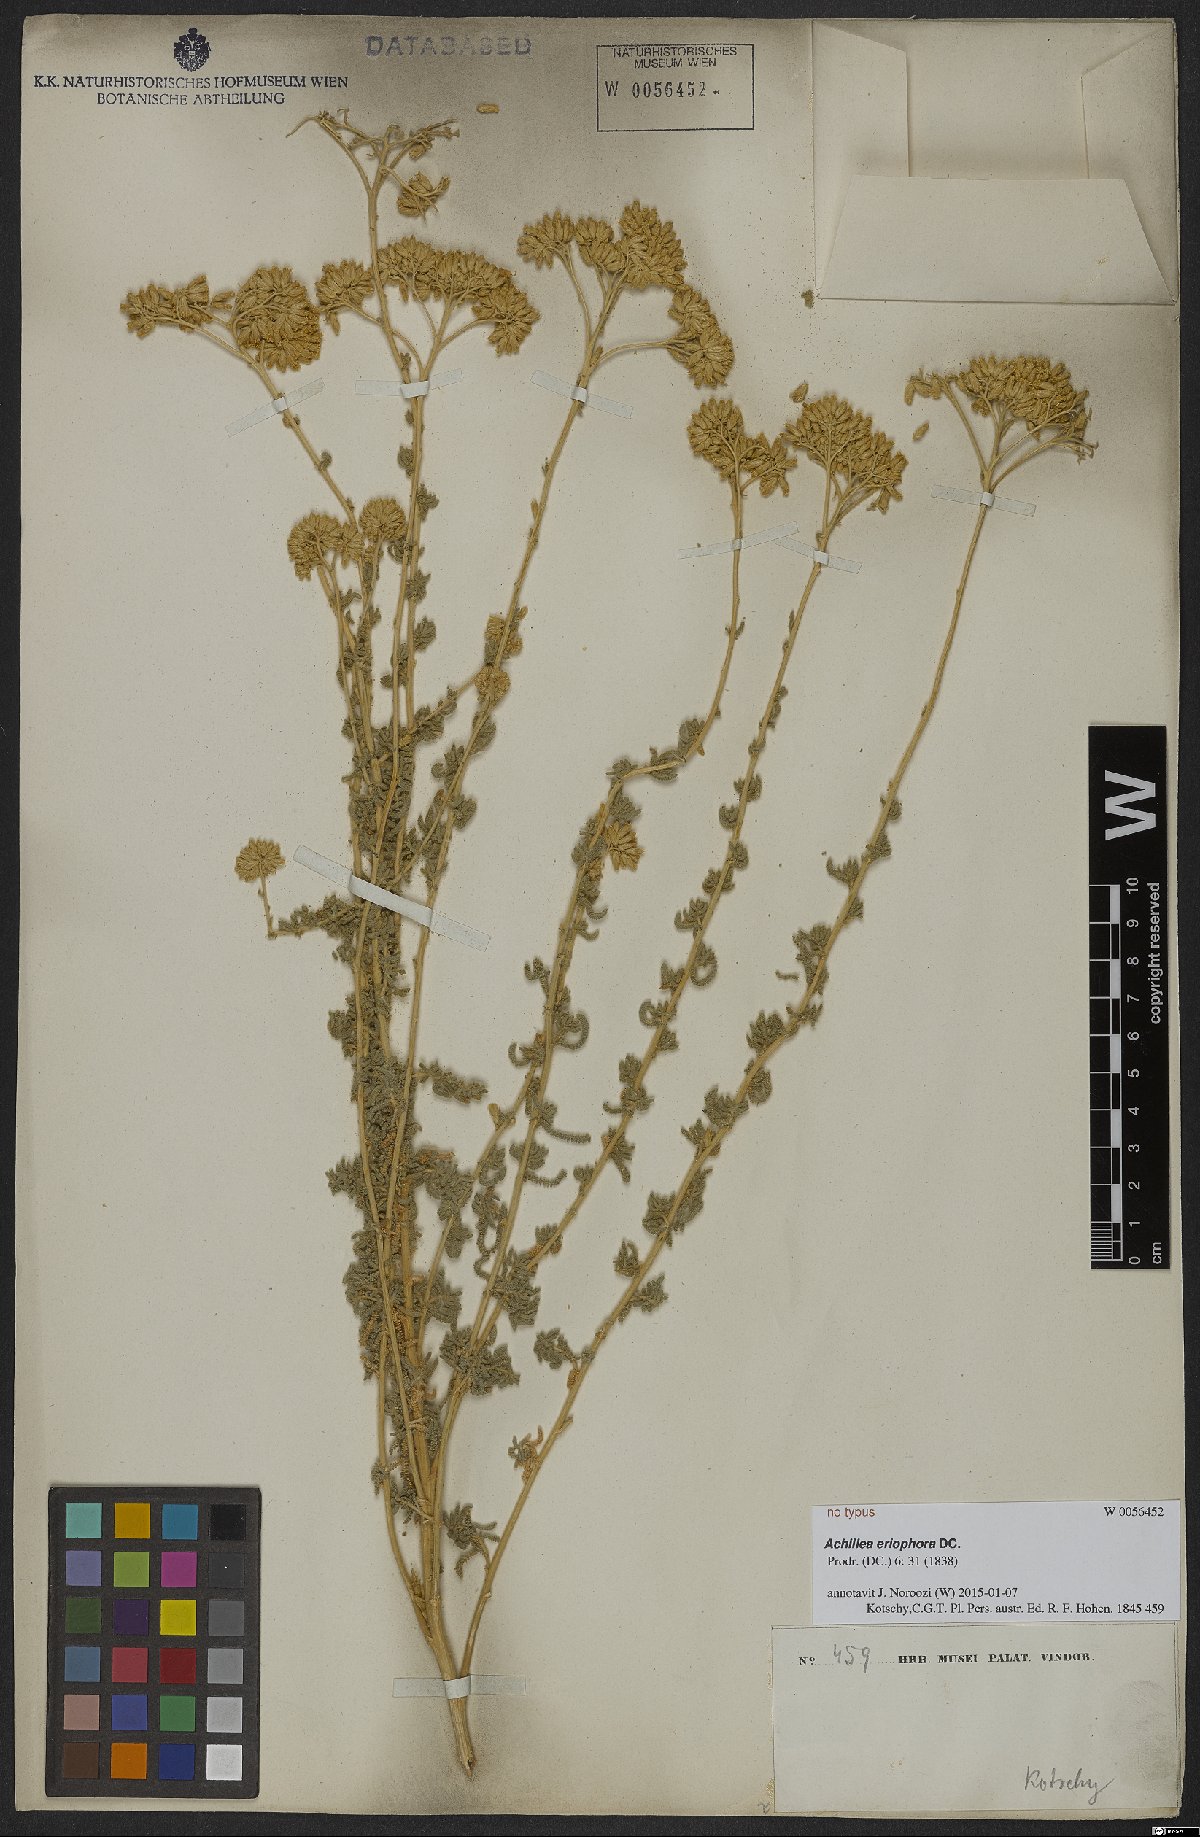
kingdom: Plantae
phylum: Tracheophyta
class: Magnoliopsida
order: Asterales
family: Asteraceae
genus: Achillea
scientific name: Achillea eriophora
